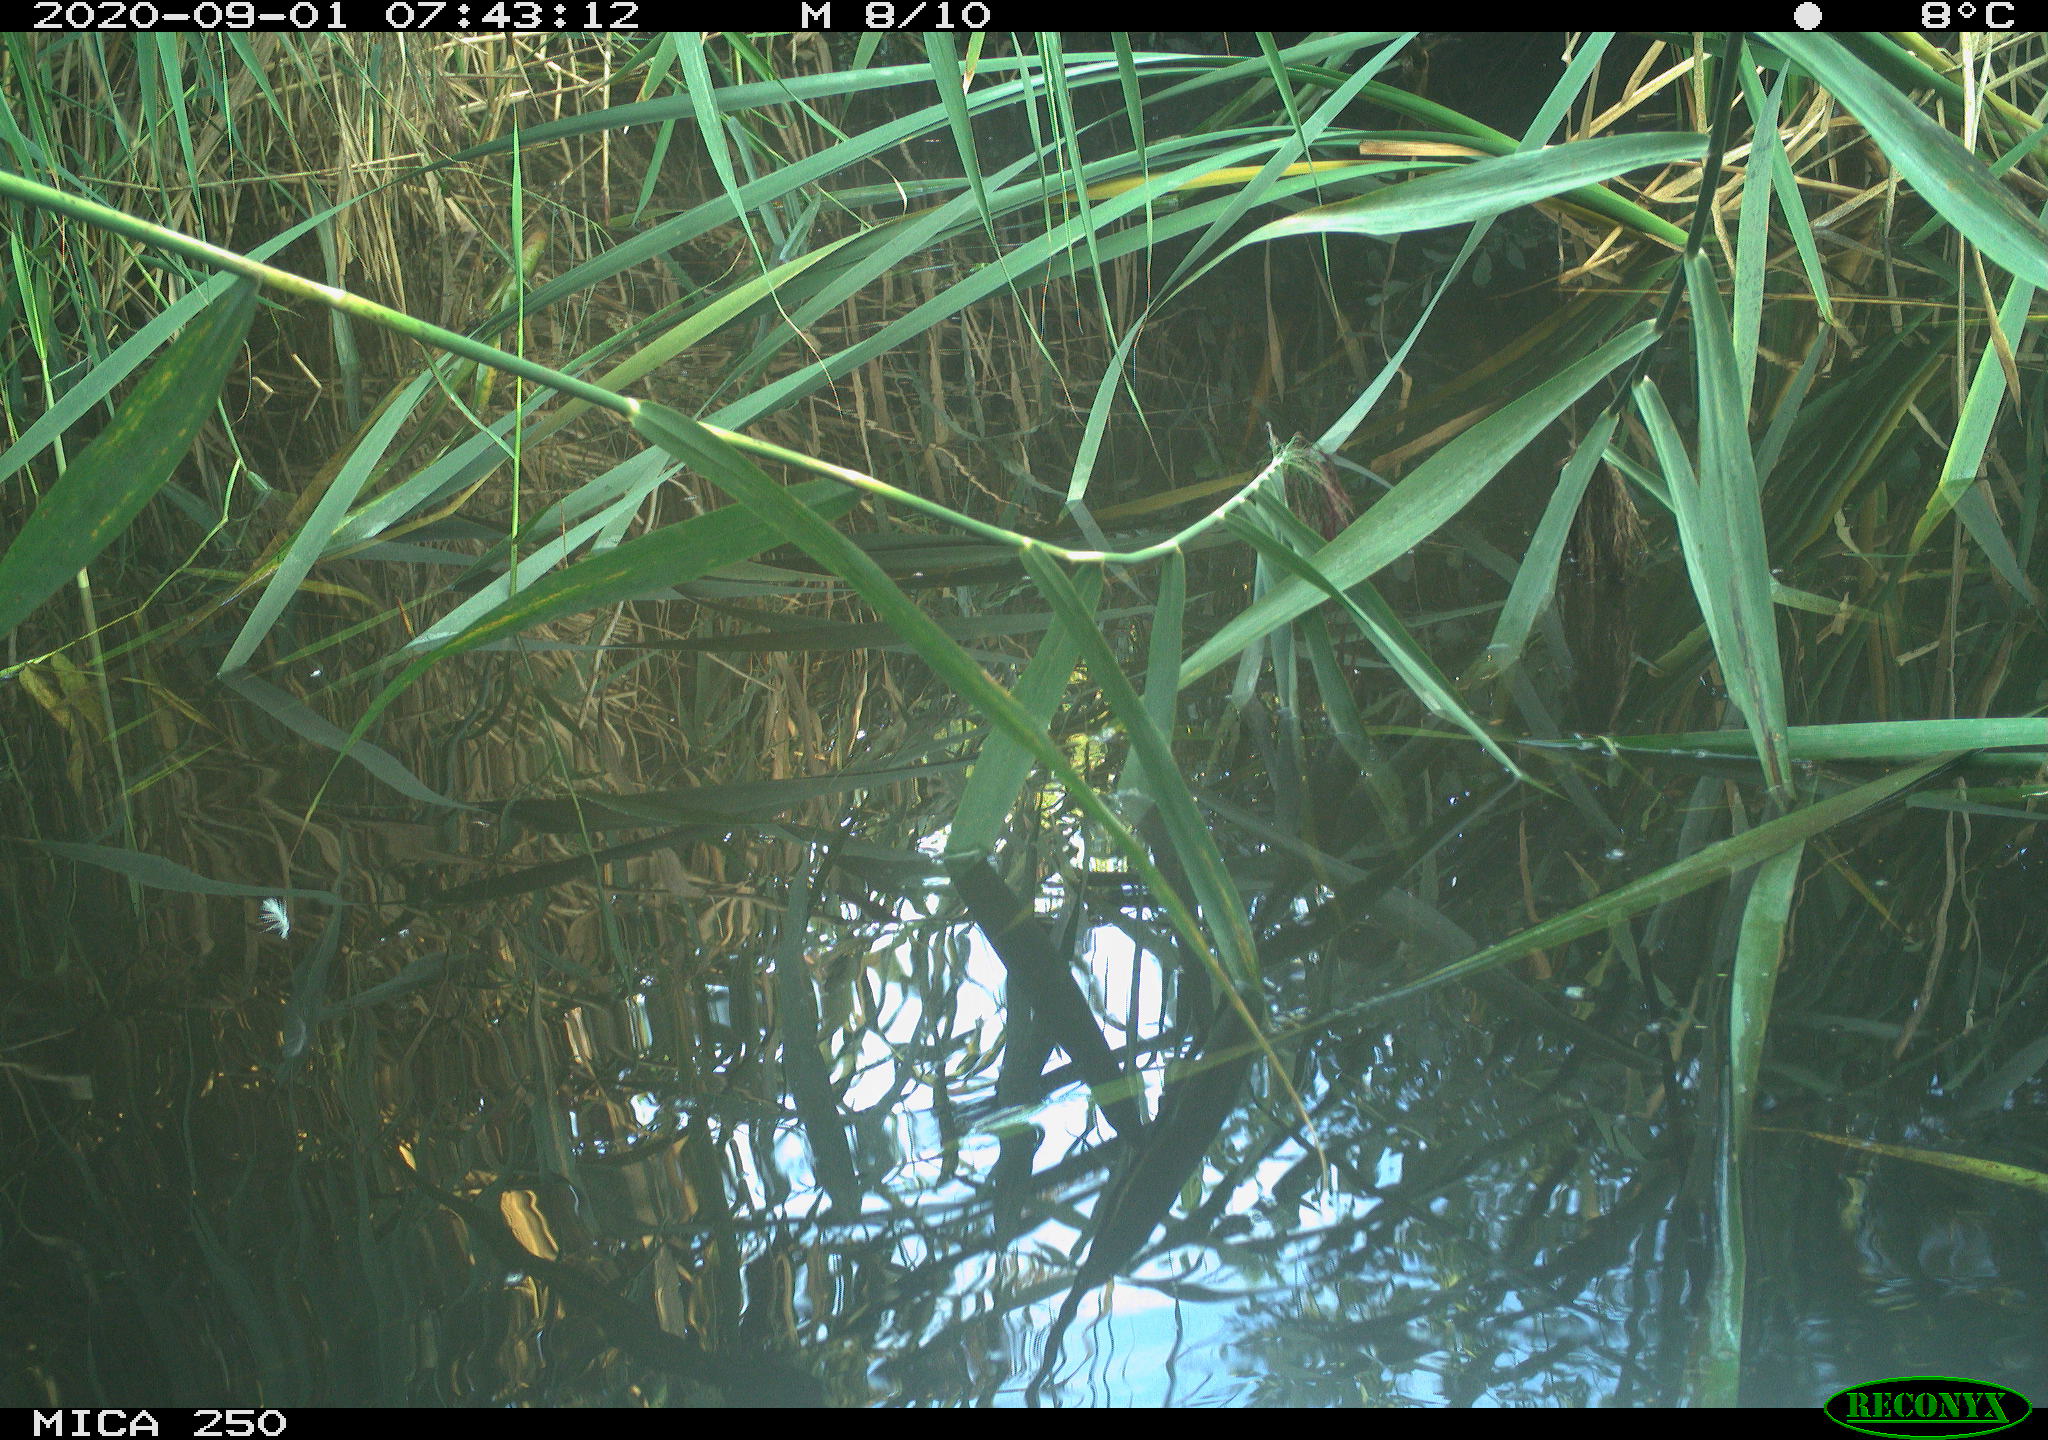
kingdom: Animalia
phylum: Chordata
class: Aves
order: Anseriformes
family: Anatidae
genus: Cygnus
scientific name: Cygnus olor
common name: Mute swan
